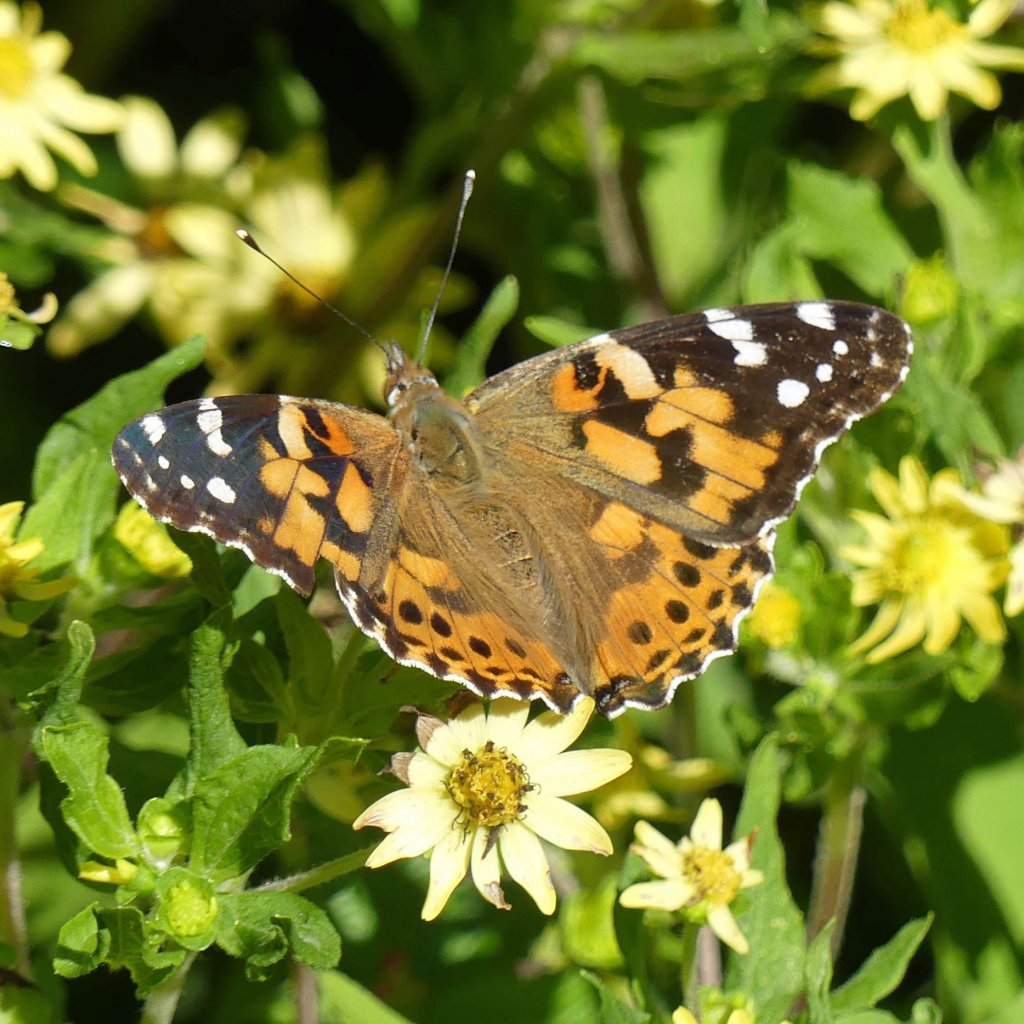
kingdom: Animalia
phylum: Arthropoda
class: Insecta
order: Lepidoptera
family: Nymphalidae
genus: Vanessa
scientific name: Vanessa cardui
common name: Painted Lady
